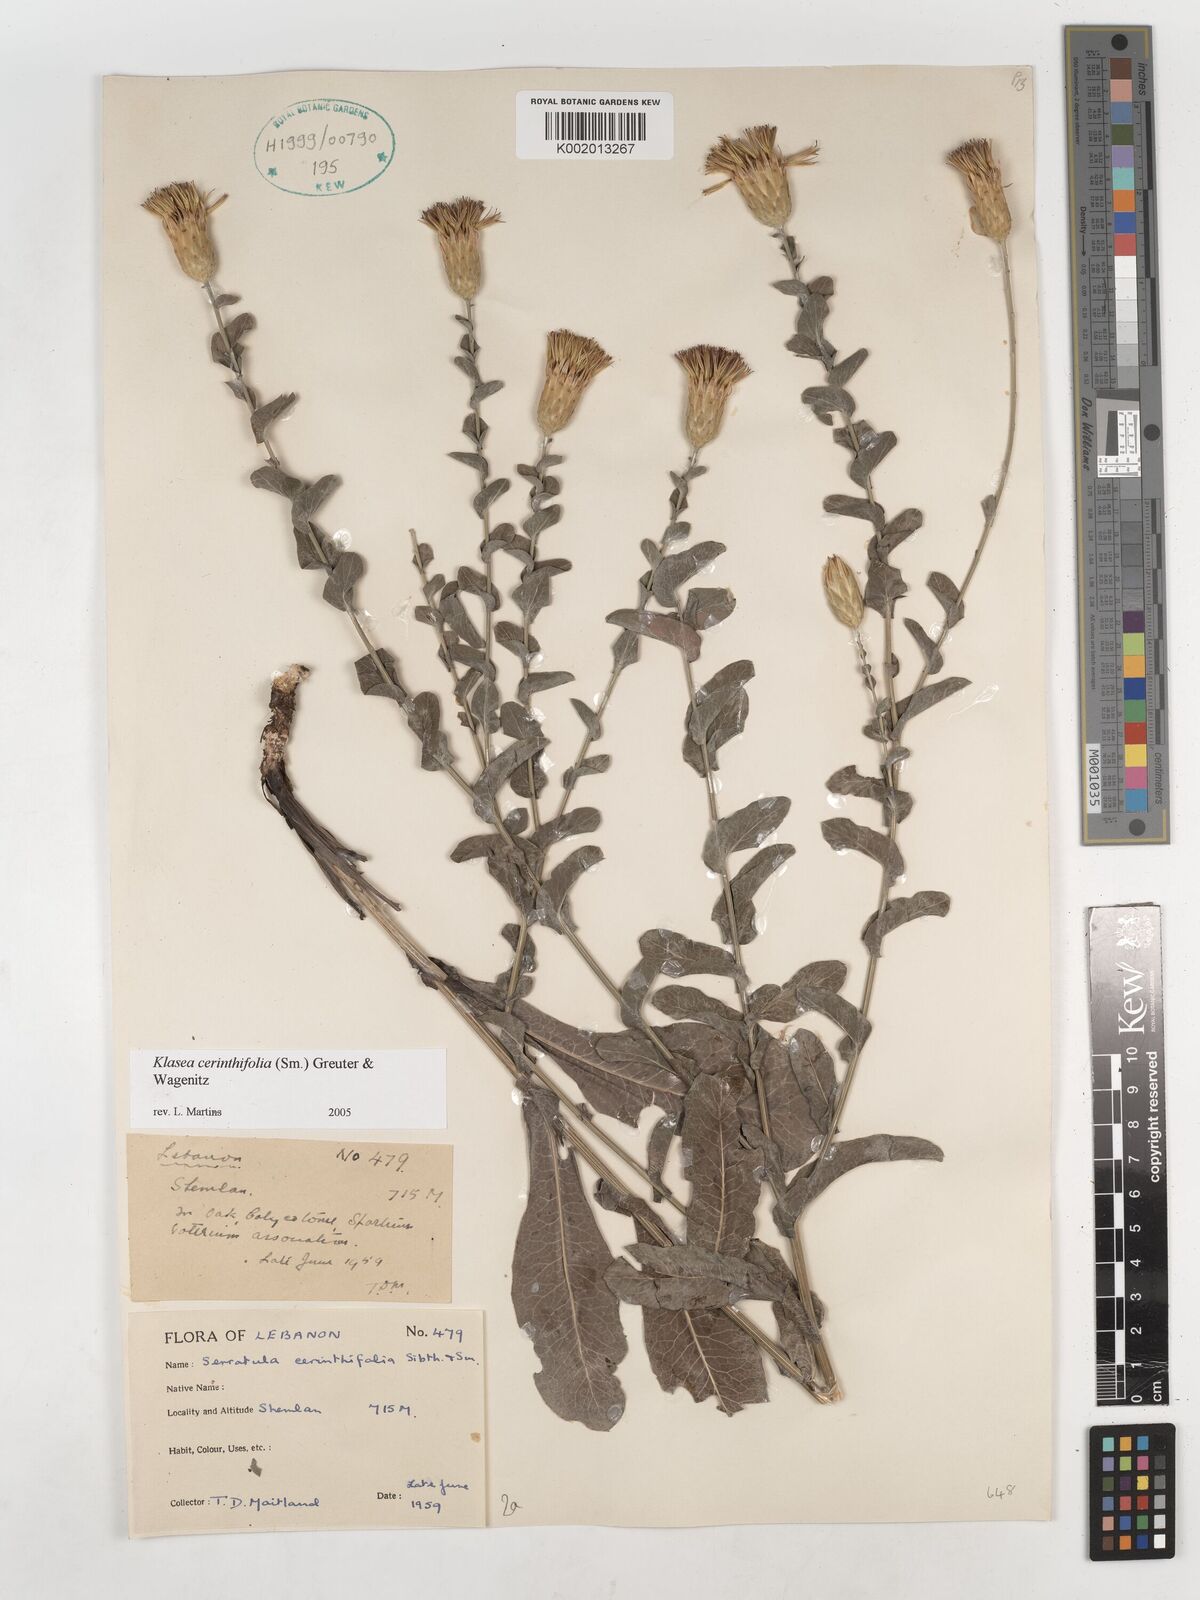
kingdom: Plantae
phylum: Tracheophyta
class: Magnoliopsida
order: Asterales
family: Asteraceae
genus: Klasea
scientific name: Klasea cerinthifolia
